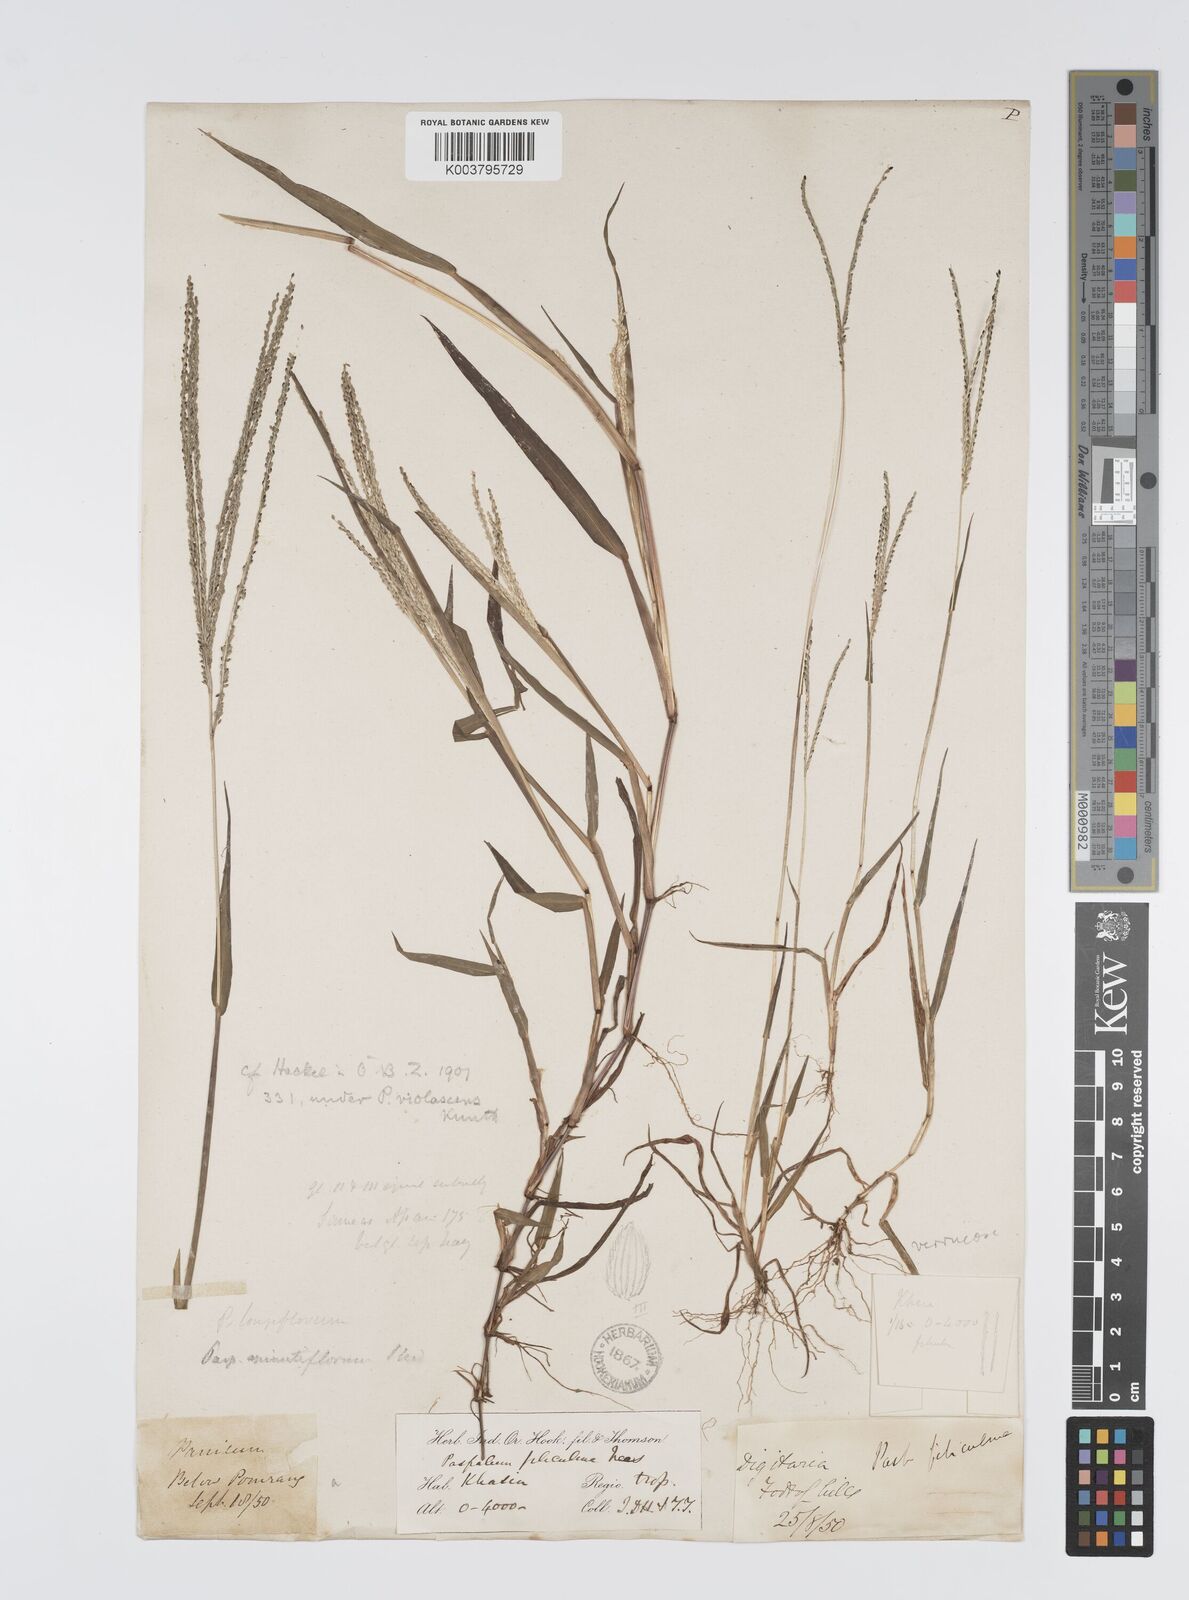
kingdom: Plantae
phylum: Tracheophyta
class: Liliopsida
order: Poales
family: Poaceae
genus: Digitaria
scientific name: Digitaria violascens
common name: Violet crabgrass
